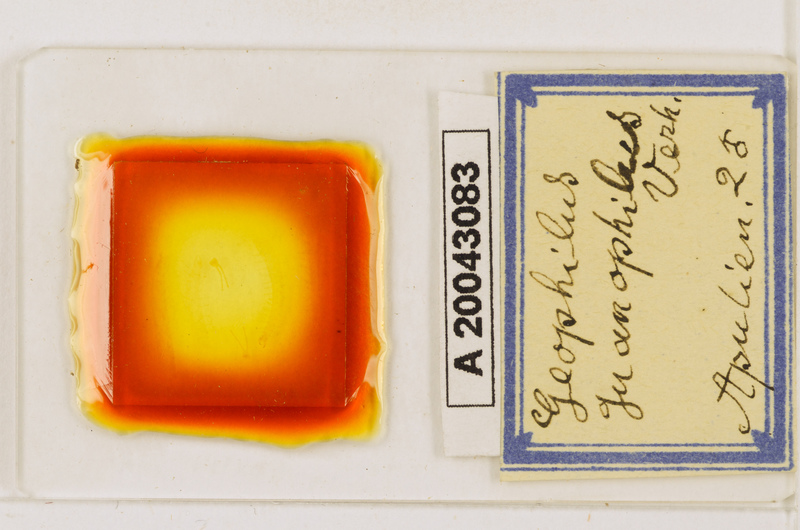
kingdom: Animalia
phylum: Arthropoda
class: Chilopoda
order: Geophilomorpha
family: Geophilidae
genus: Geophilus
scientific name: Geophilus guanophilus
